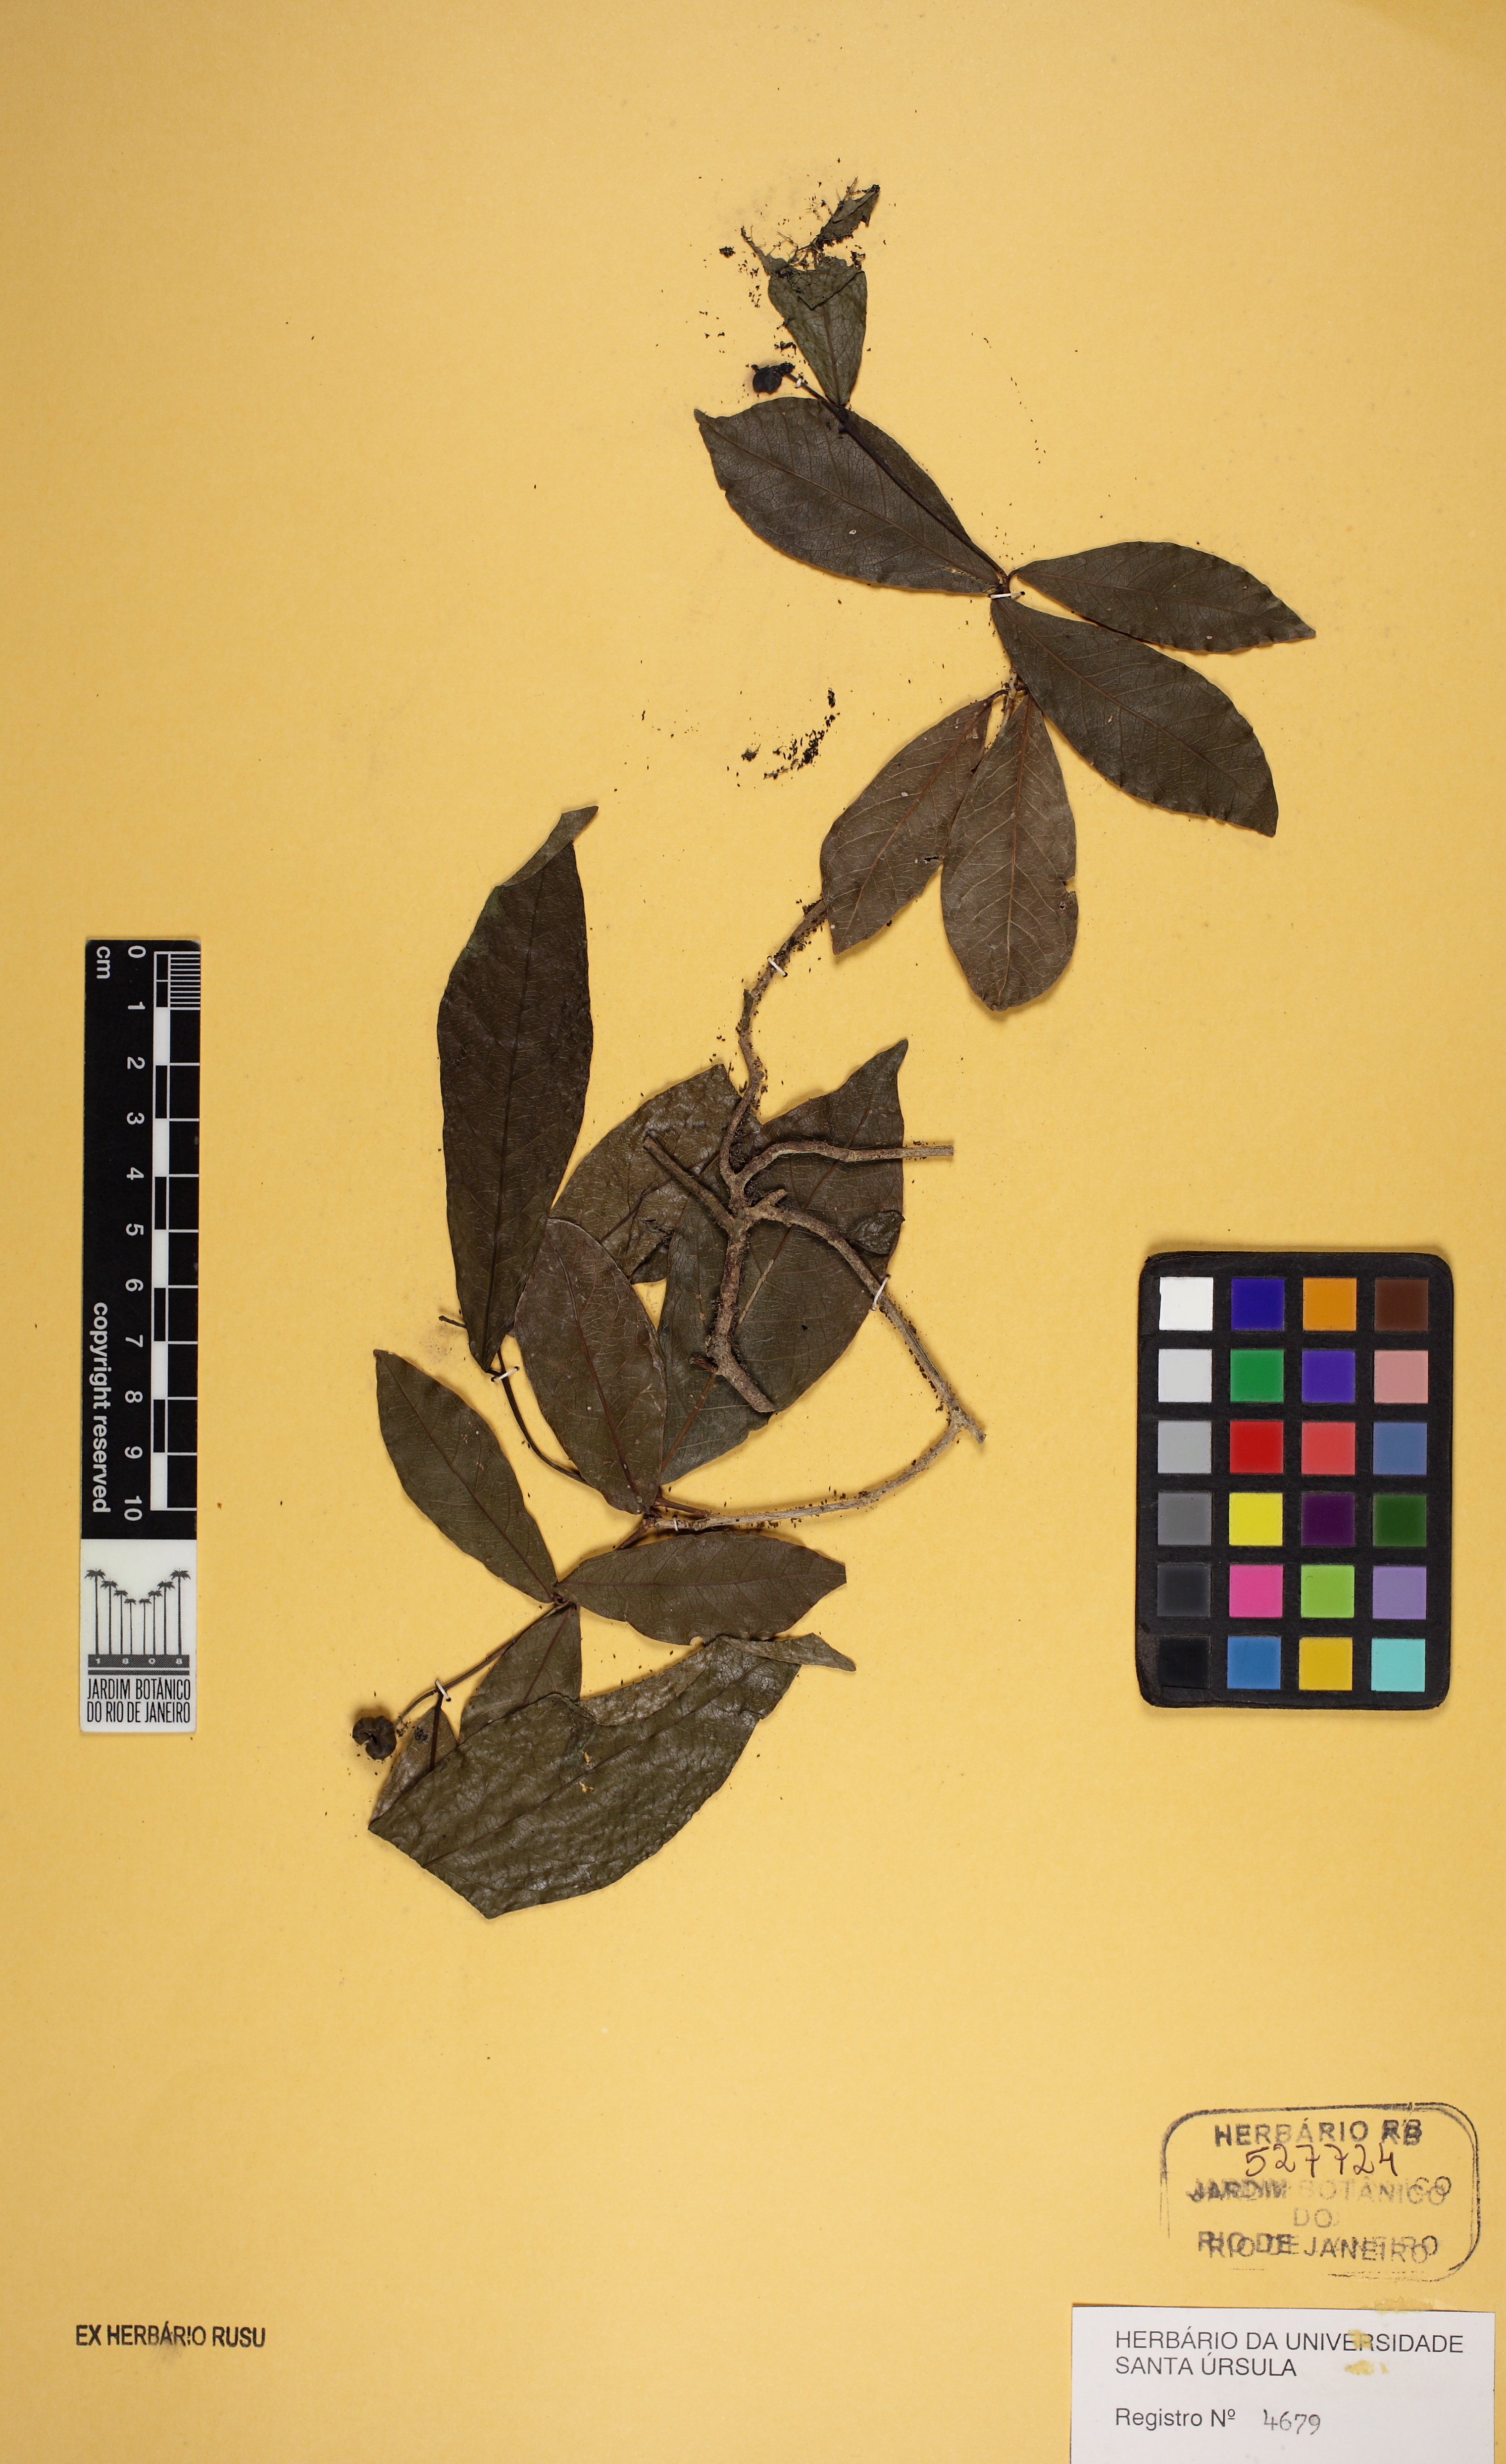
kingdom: Plantae
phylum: Tracheophyta
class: Magnoliopsida
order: Malpighiales
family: Euphorbiaceae
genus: Actinostemon
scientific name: Actinostemon verticillatus
